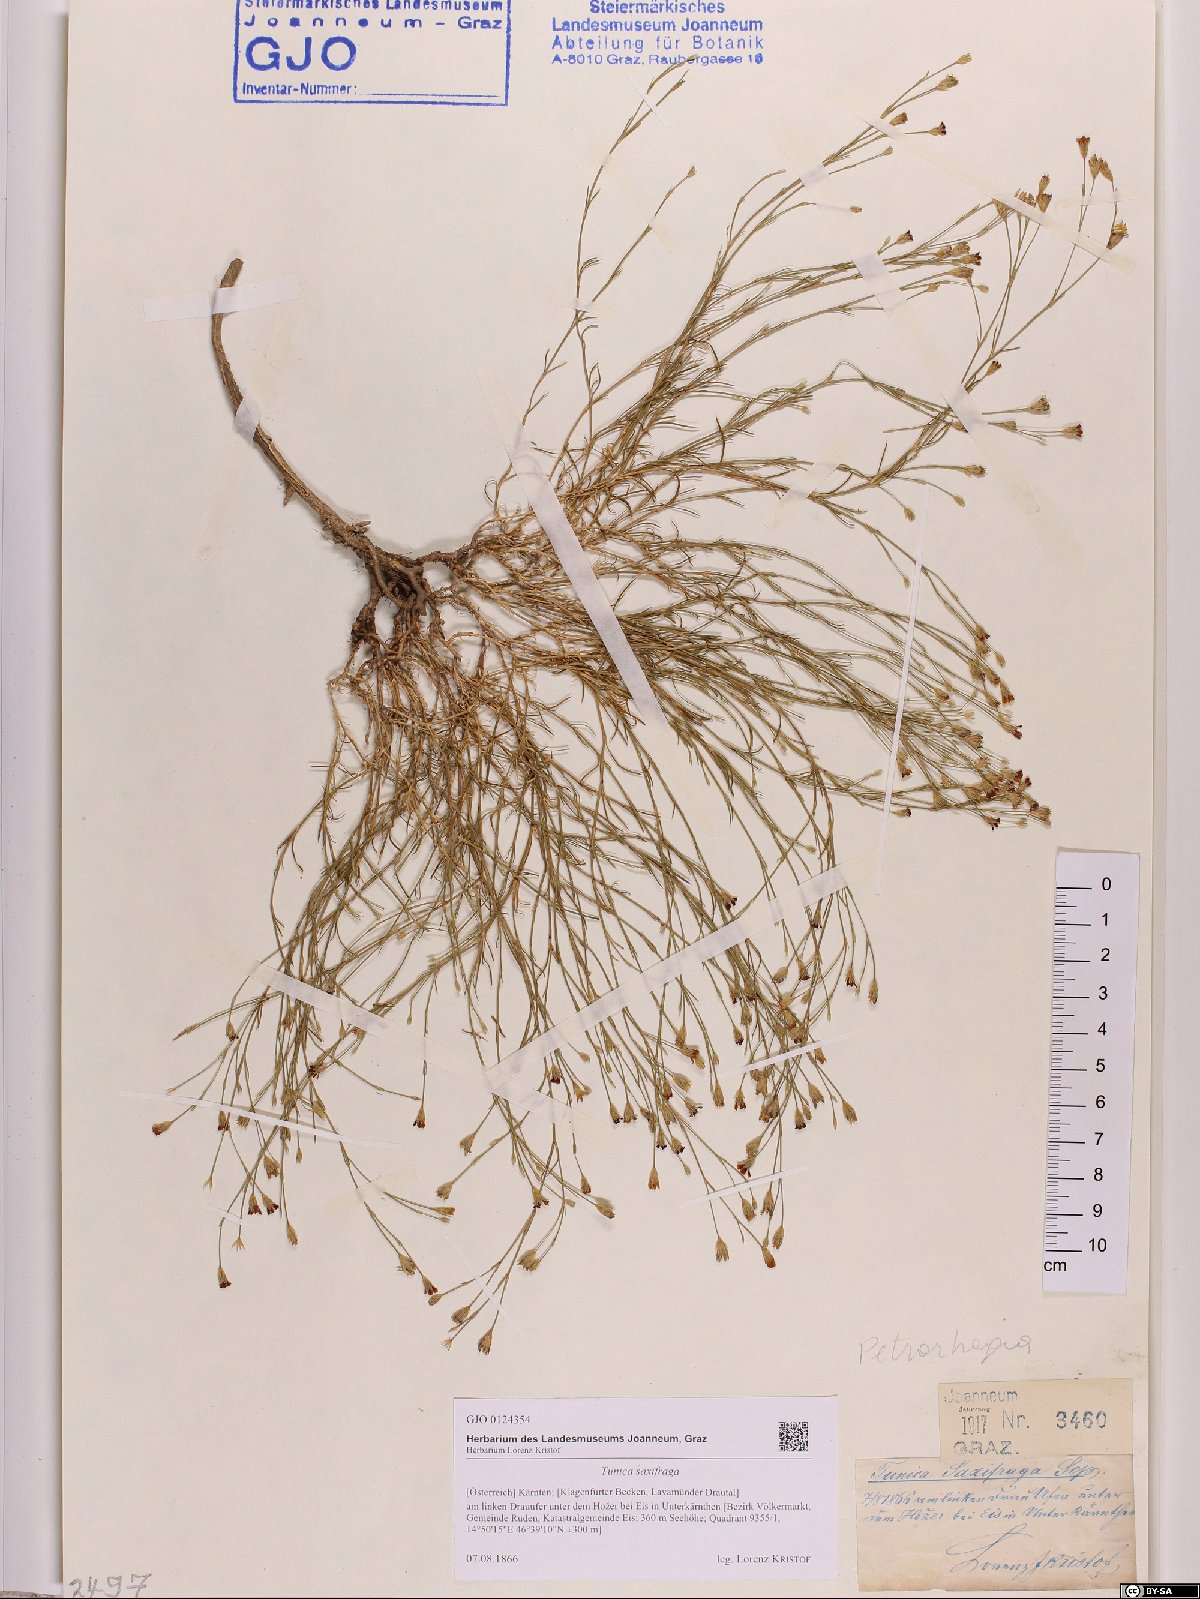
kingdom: Plantae
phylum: Tracheophyta
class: Magnoliopsida
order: Caryophyllales
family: Caryophyllaceae
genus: Petrorhagia
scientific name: Petrorhagia saxifraga
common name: Tunicflower
